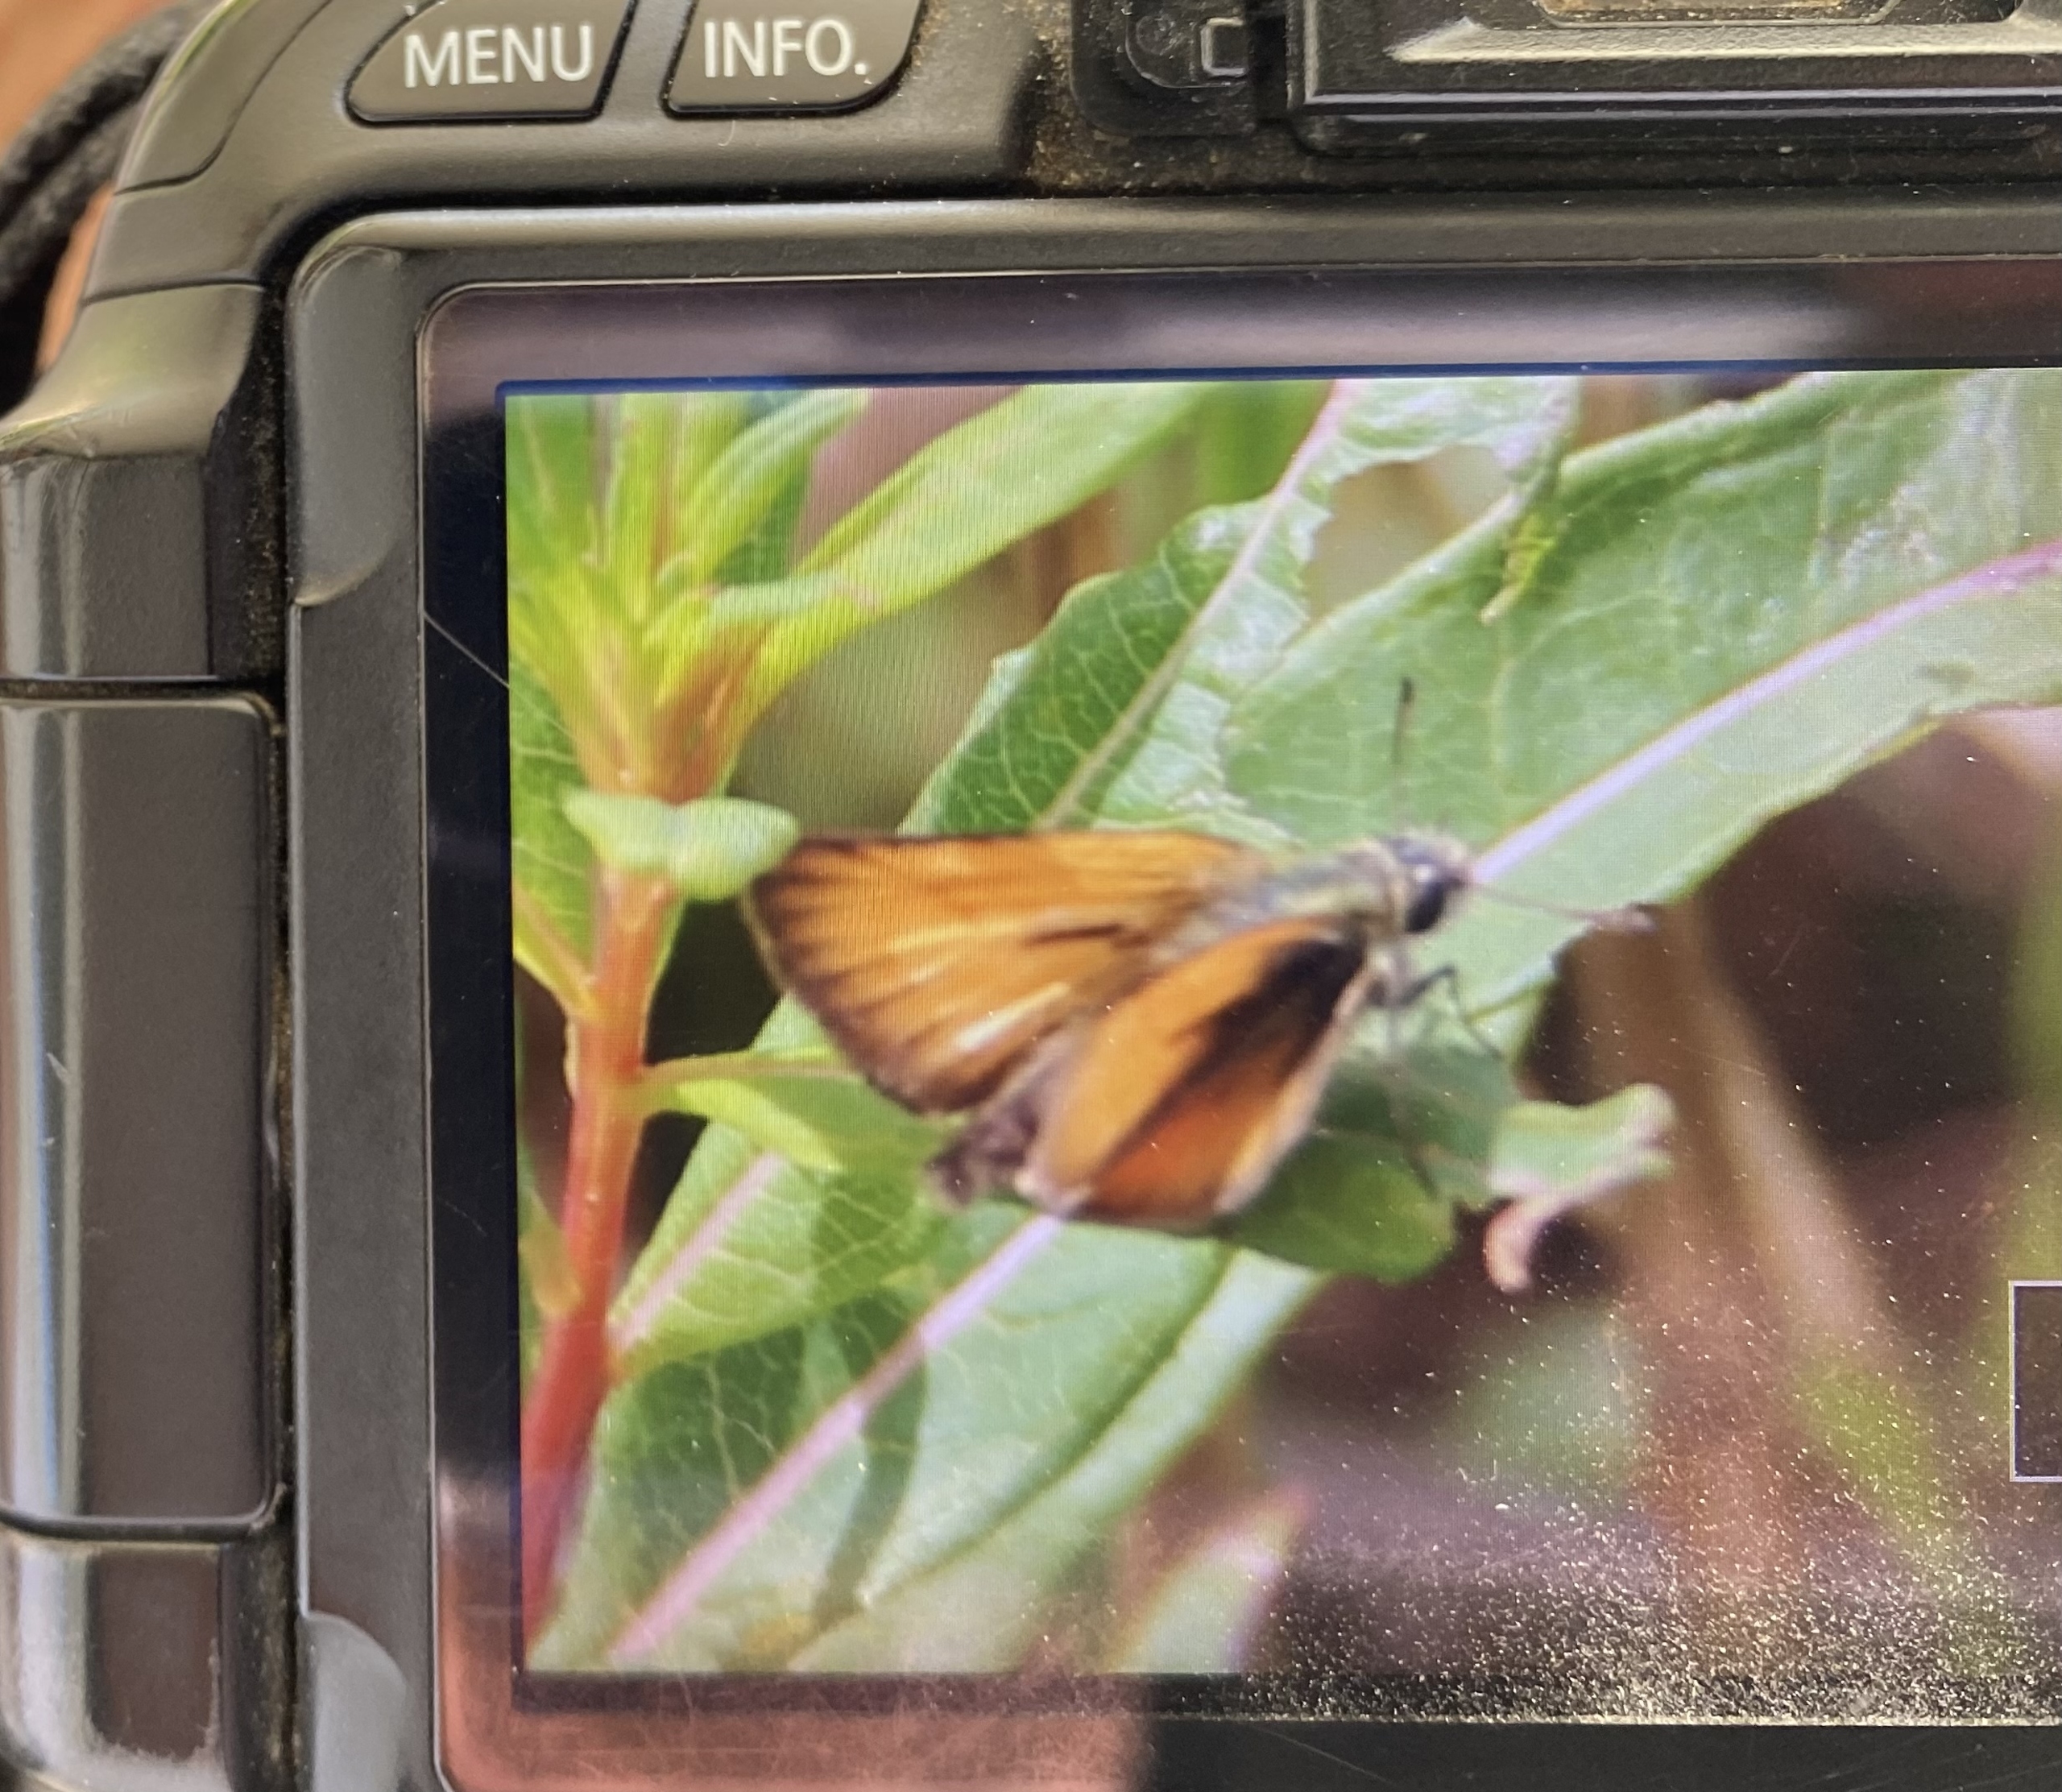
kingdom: Animalia
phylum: Arthropoda
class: Insecta
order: Lepidoptera
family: Hesperiidae
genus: Thymelicus
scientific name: Thymelicus lineola
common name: Stregbredpande
